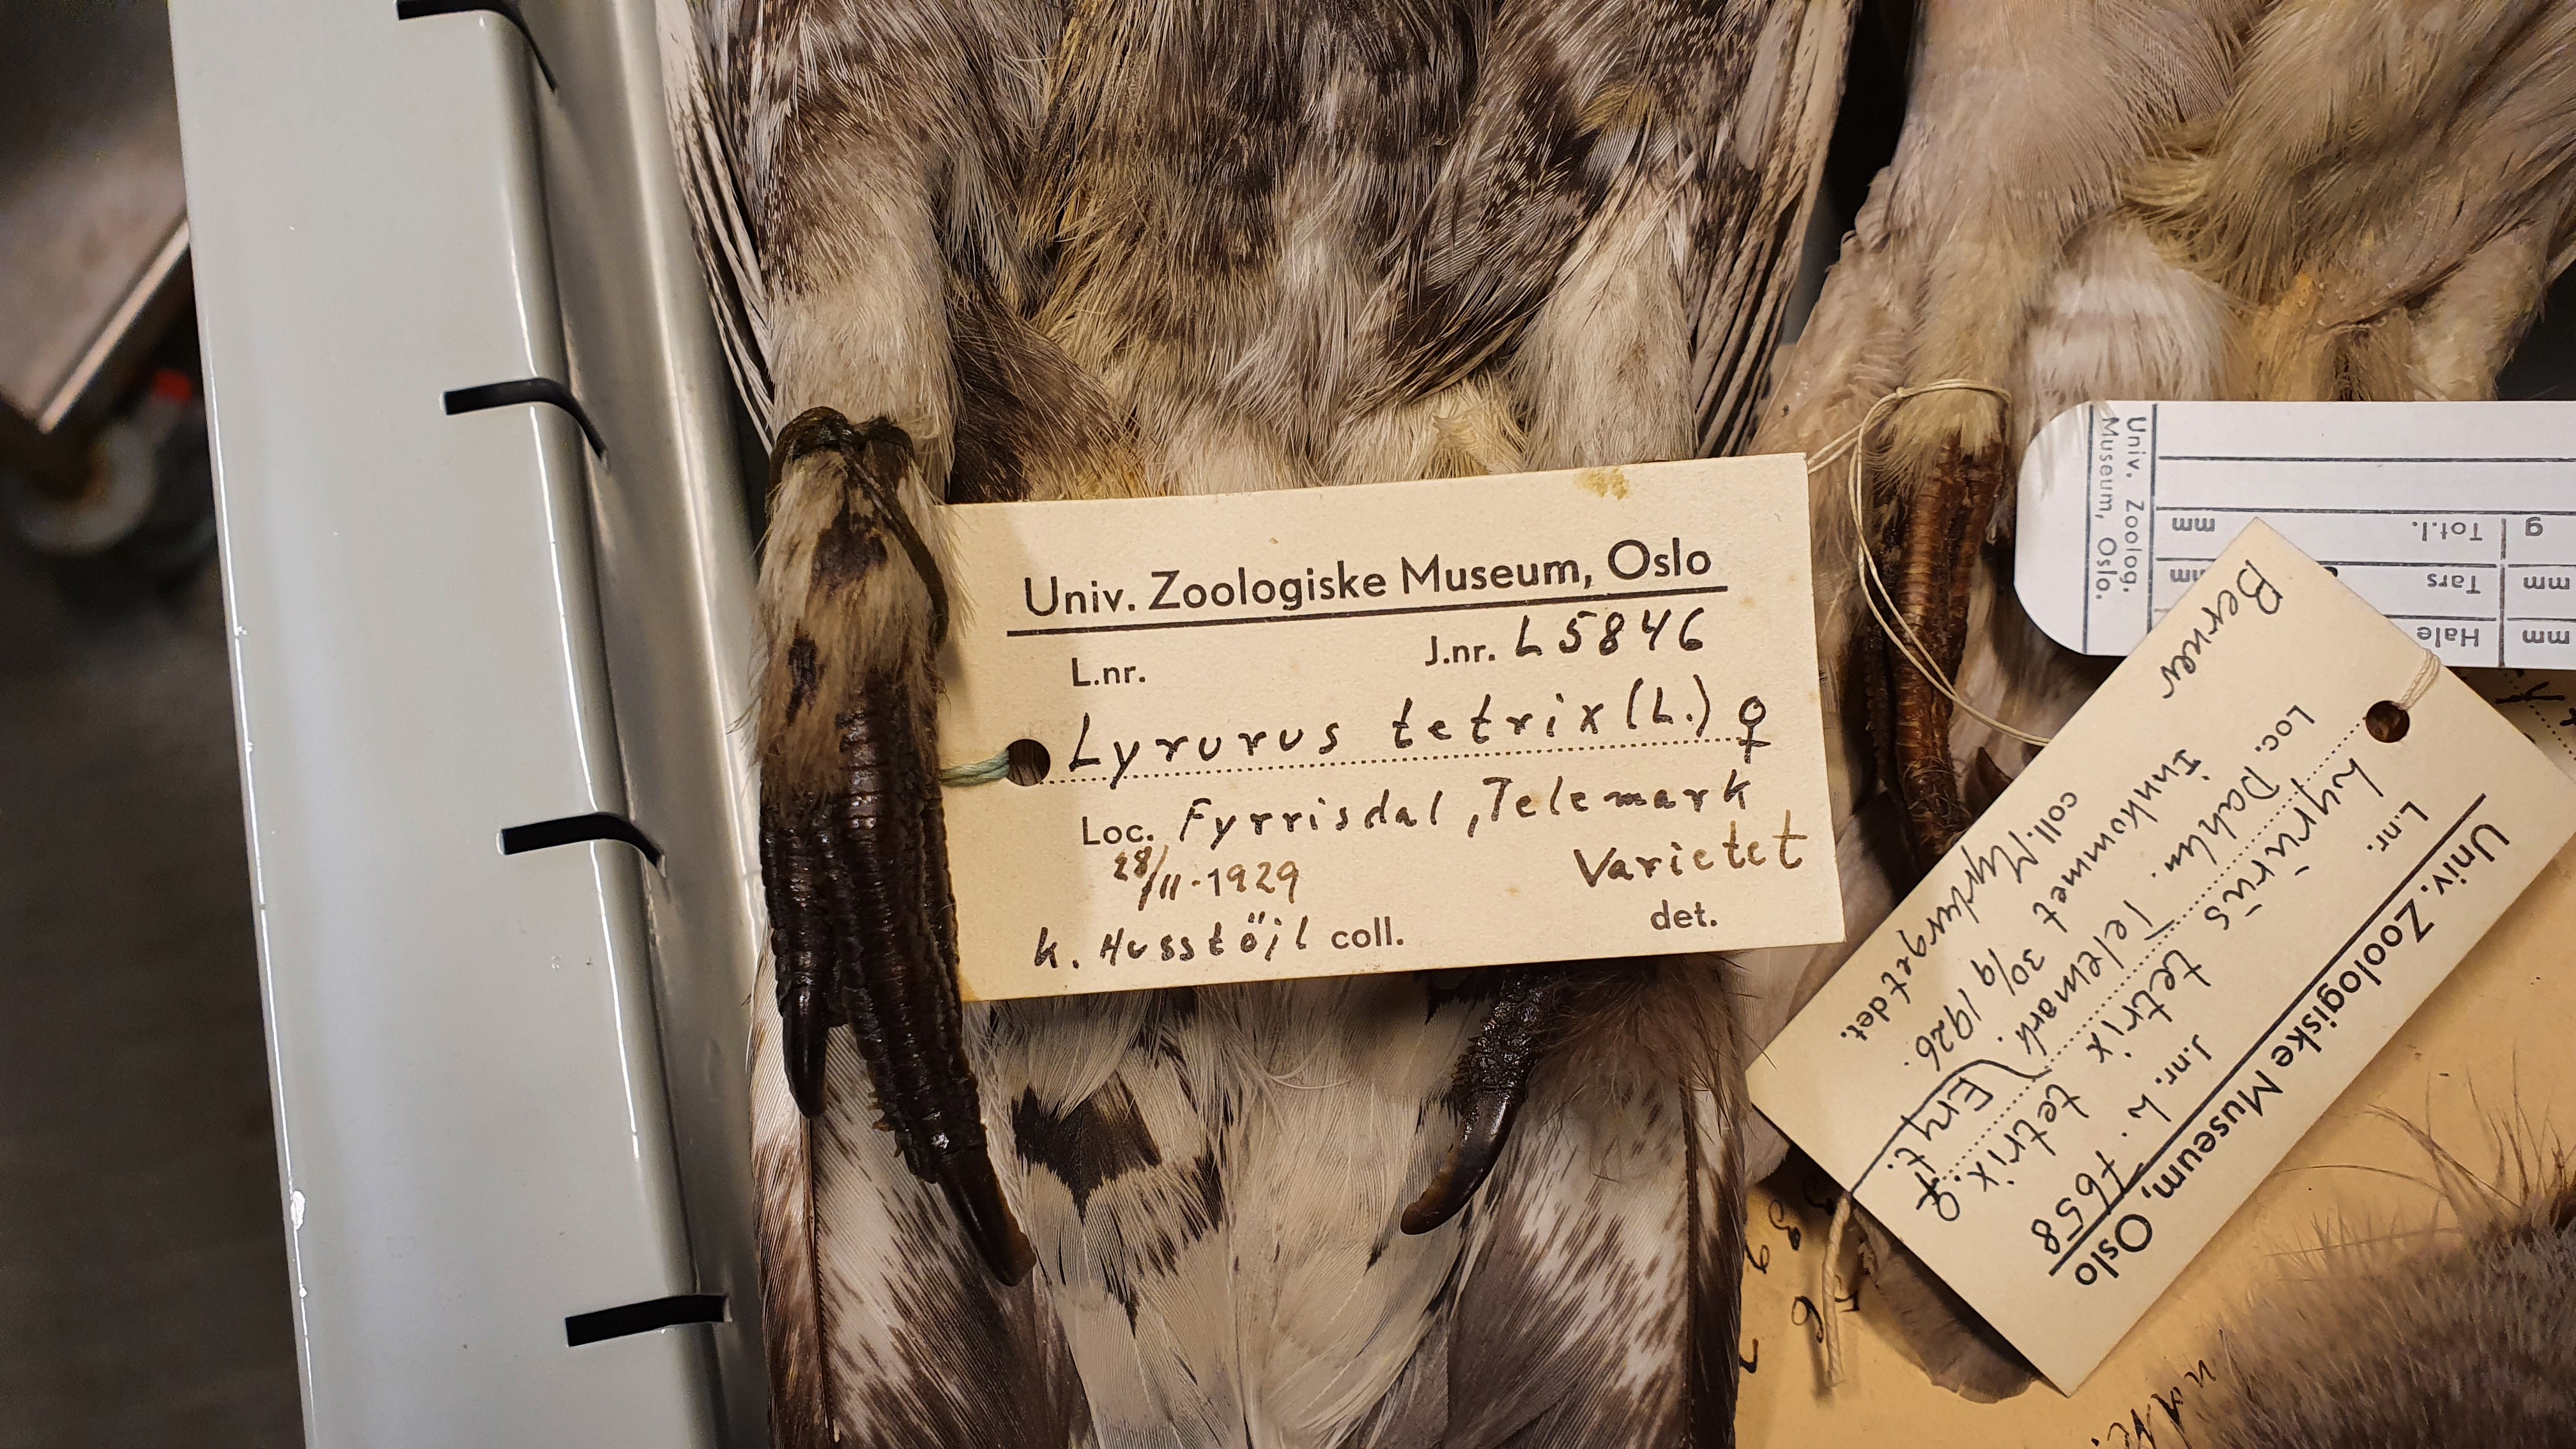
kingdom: Animalia
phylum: Chordata
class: Aves
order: Galliformes
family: Phasianidae
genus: Lyrurus
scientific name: Lyrurus tetrix
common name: Black grouse
